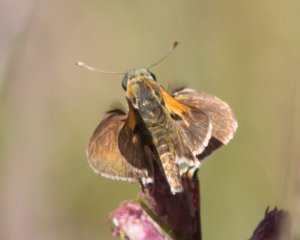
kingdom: Animalia
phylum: Arthropoda
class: Insecta
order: Lepidoptera
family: Hesperiidae
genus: Polites
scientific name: Polites themistocles
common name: Tawny-edged Skipper
